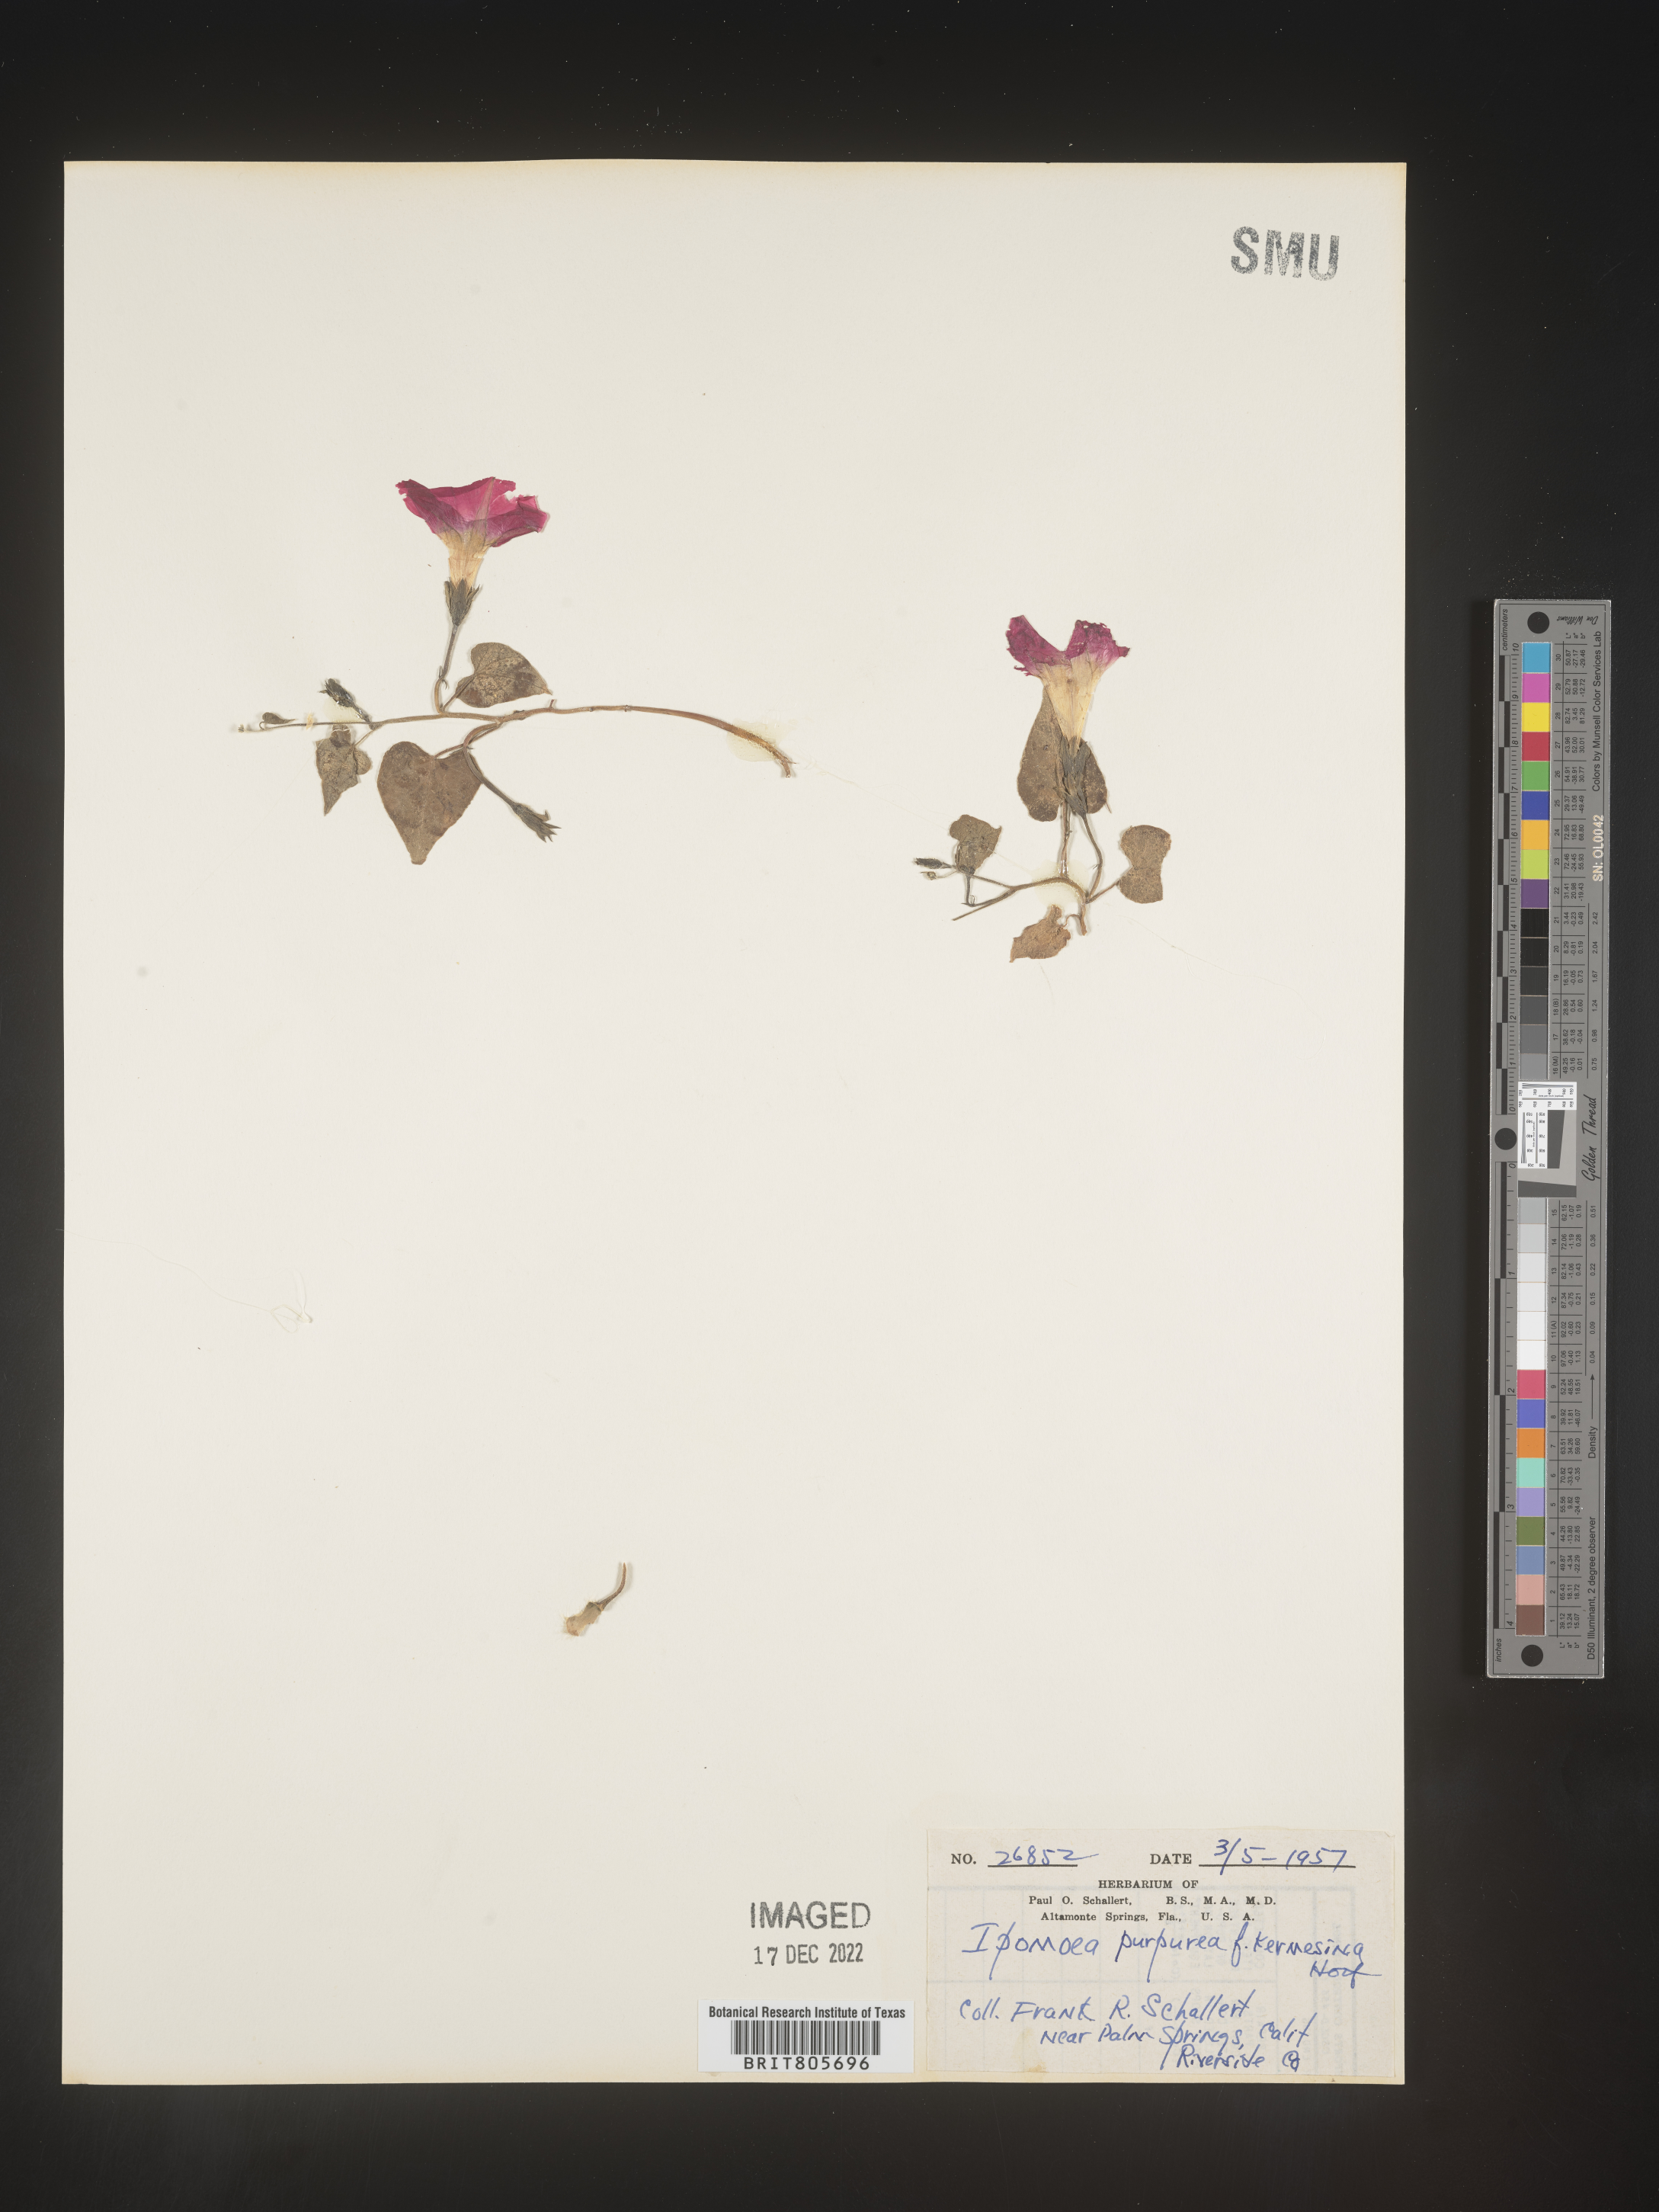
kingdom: Plantae
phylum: Tracheophyta
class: Magnoliopsida
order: Solanales
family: Convolvulaceae
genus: Ipomoea
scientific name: Ipomoea purpurea
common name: Common morning-glory
